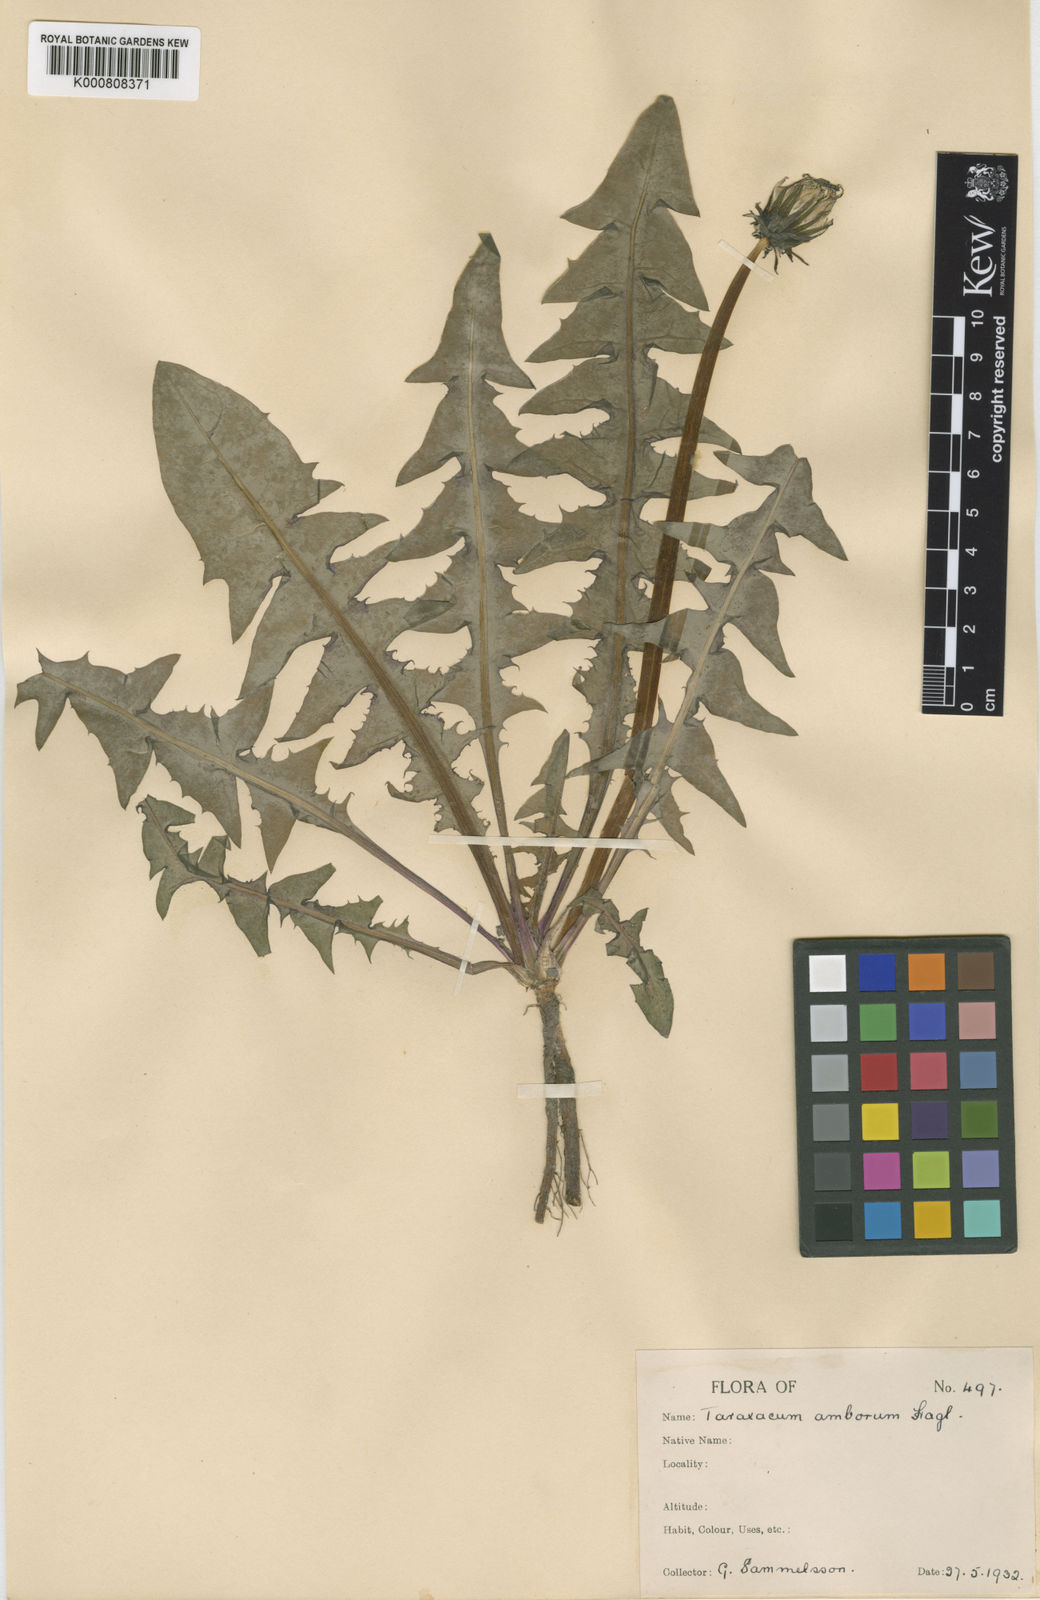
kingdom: Plantae
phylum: Tracheophyta
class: Magnoliopsida
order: Asterales
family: Asteraceae
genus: Taraxacum
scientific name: Taraxacum amborum
